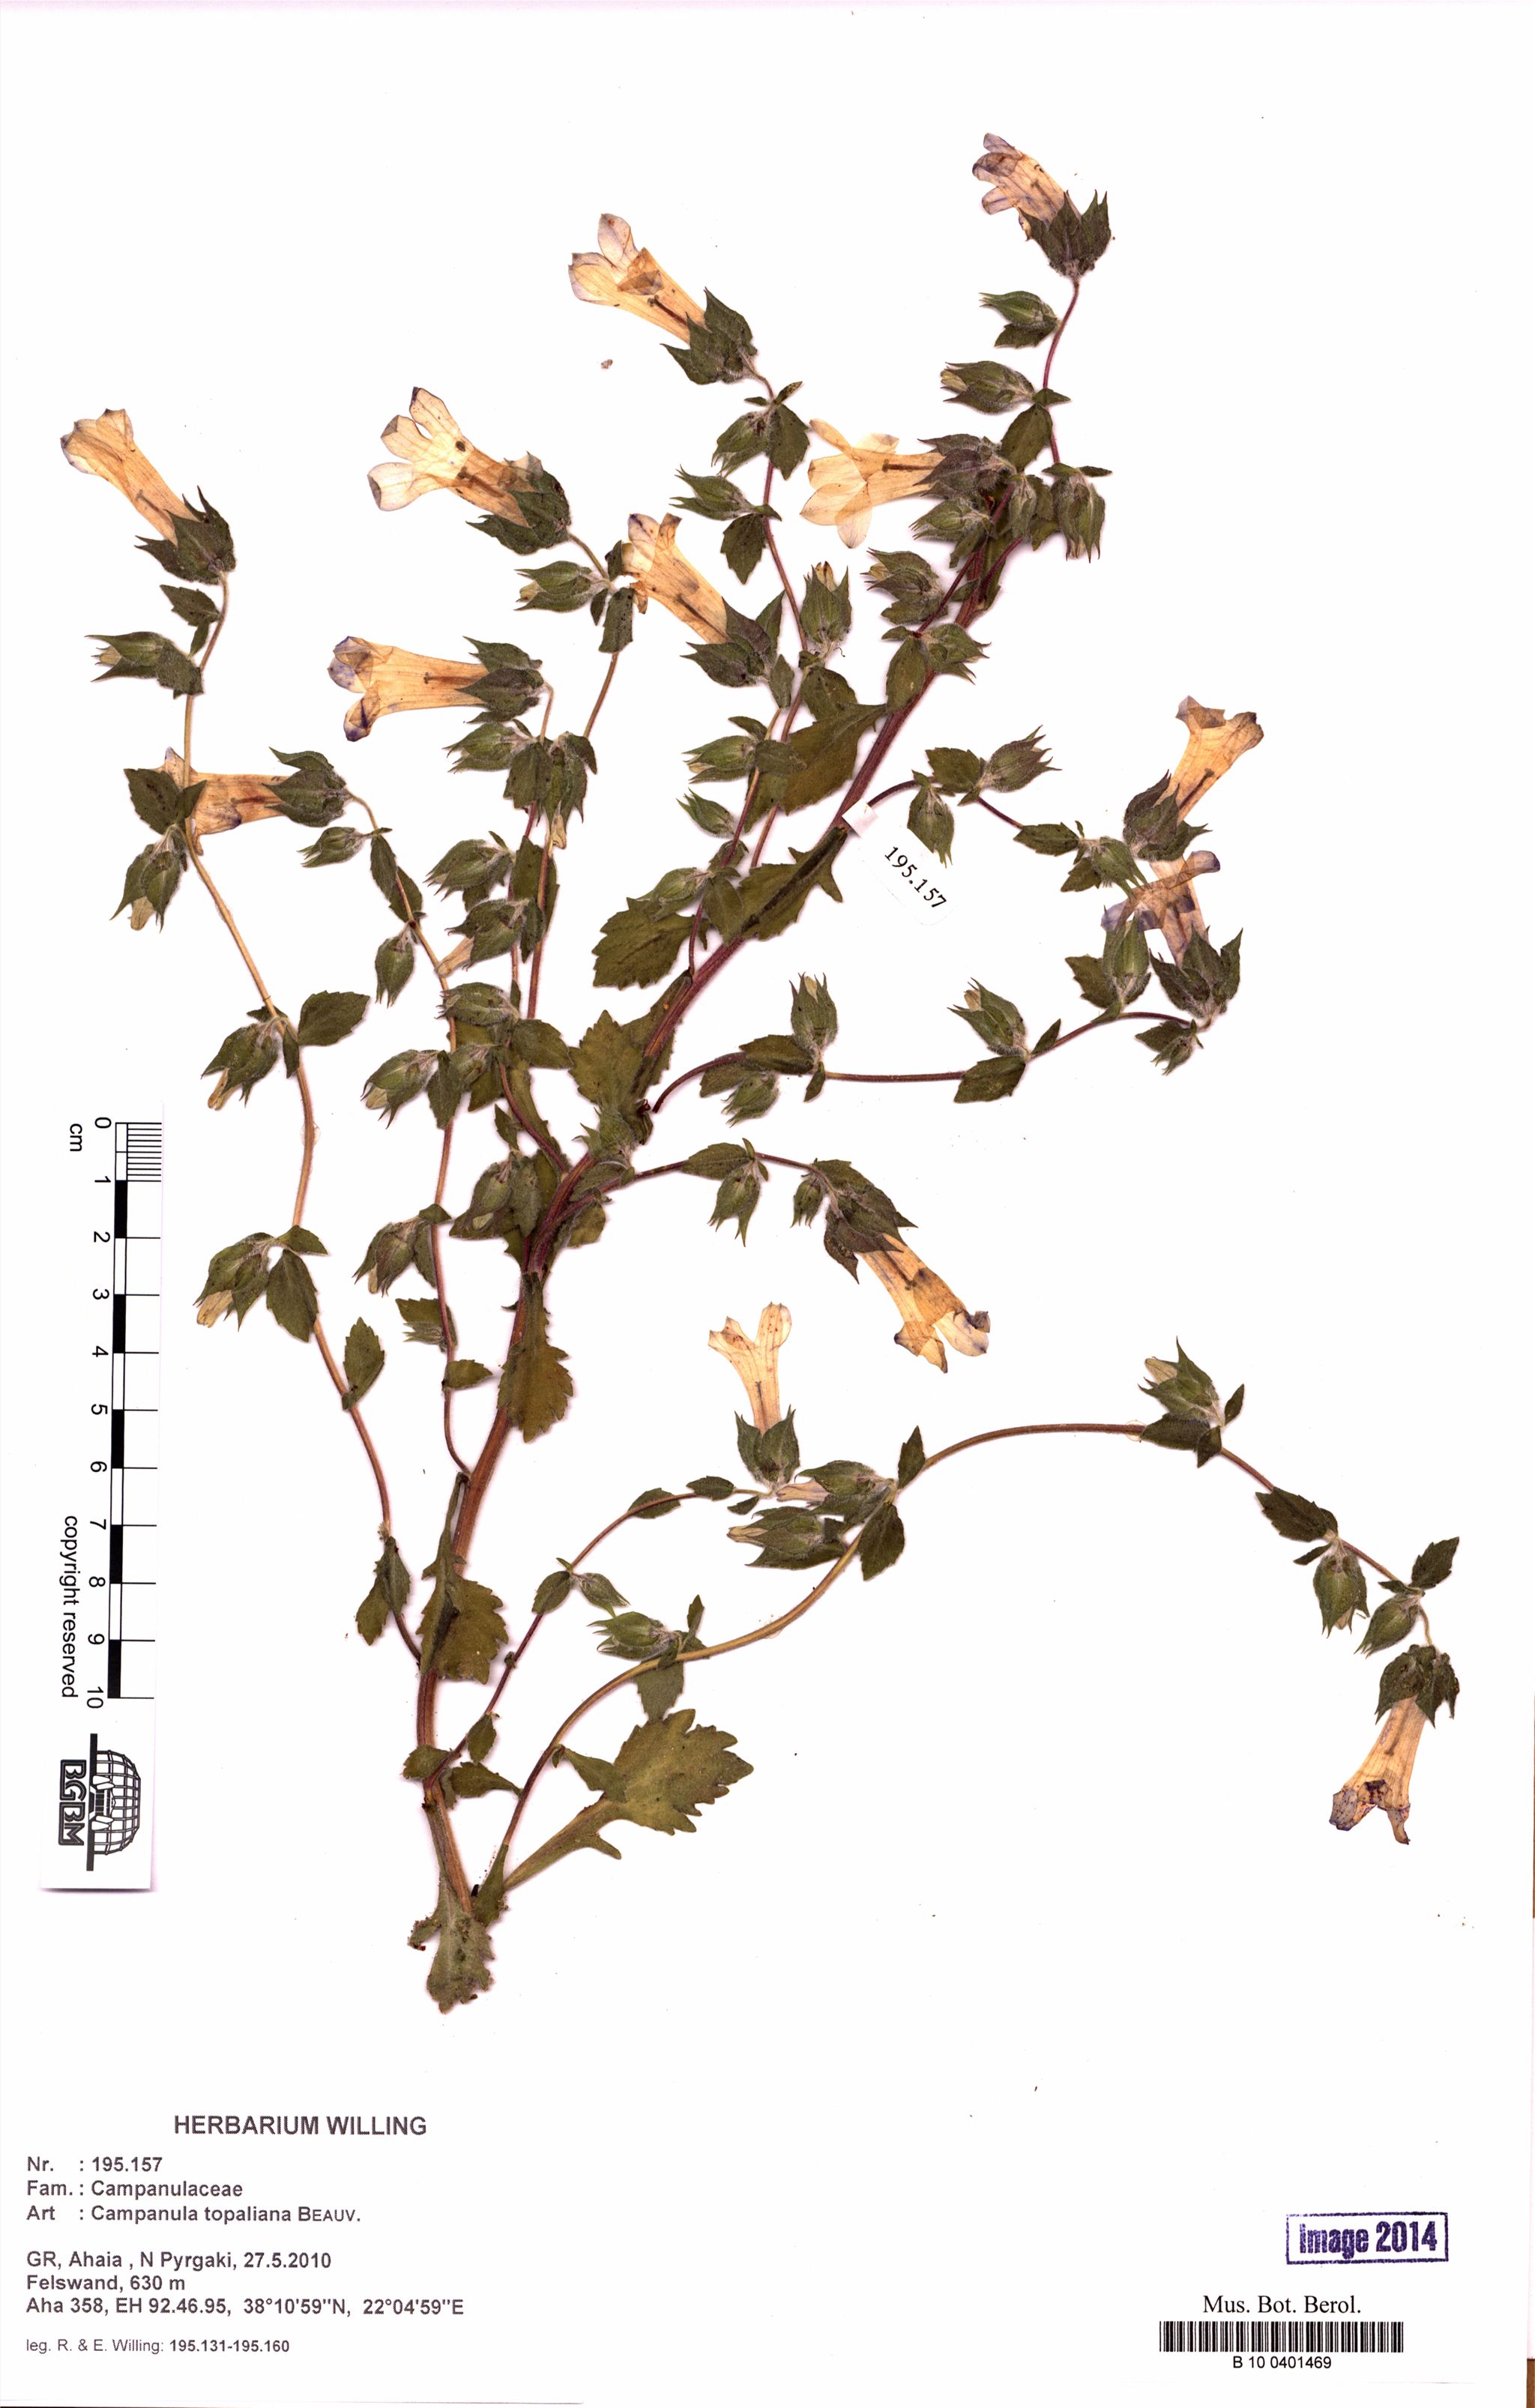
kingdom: Plantae
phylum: Tracheophyta
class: Magnoliopsida
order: Asterales
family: Campanulaceae
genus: Campanula
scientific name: Campanula topaliana
